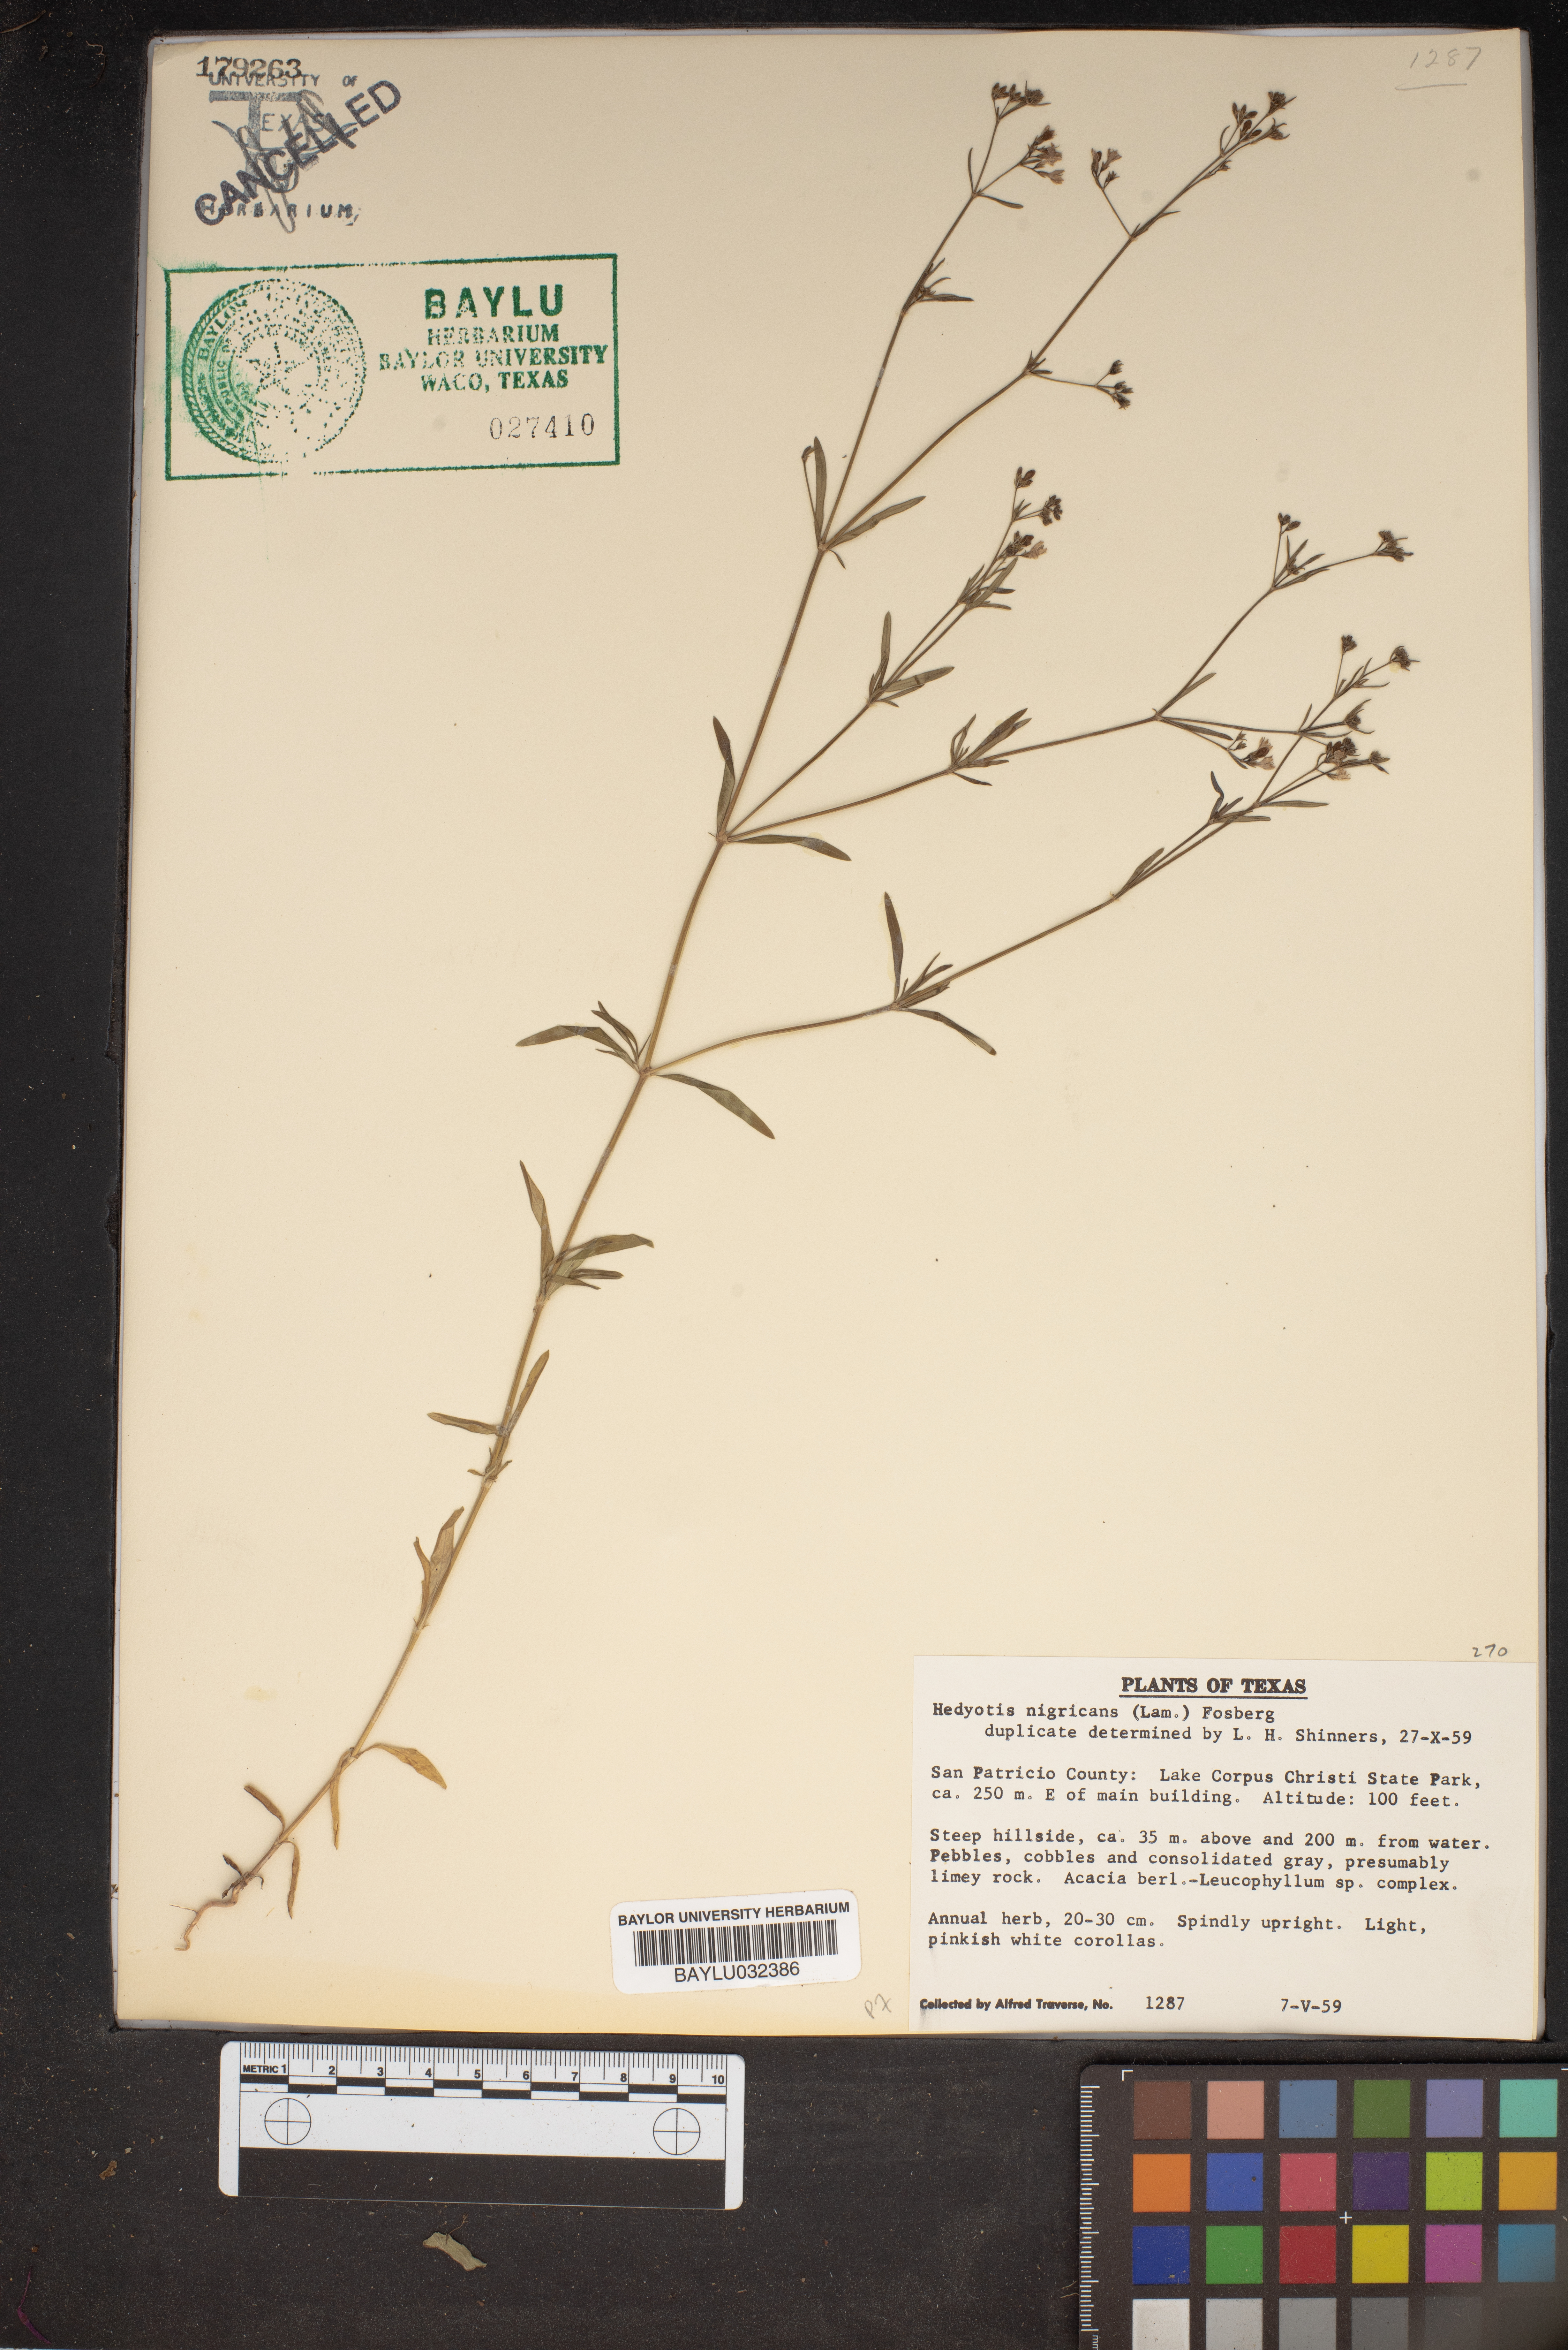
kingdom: Plantae
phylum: Tracheophyta
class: Magnoliopsida
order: Gentianales
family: Rubiaceae
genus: Stenaria
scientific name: Stenaria nigricans
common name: Diamondflowers
